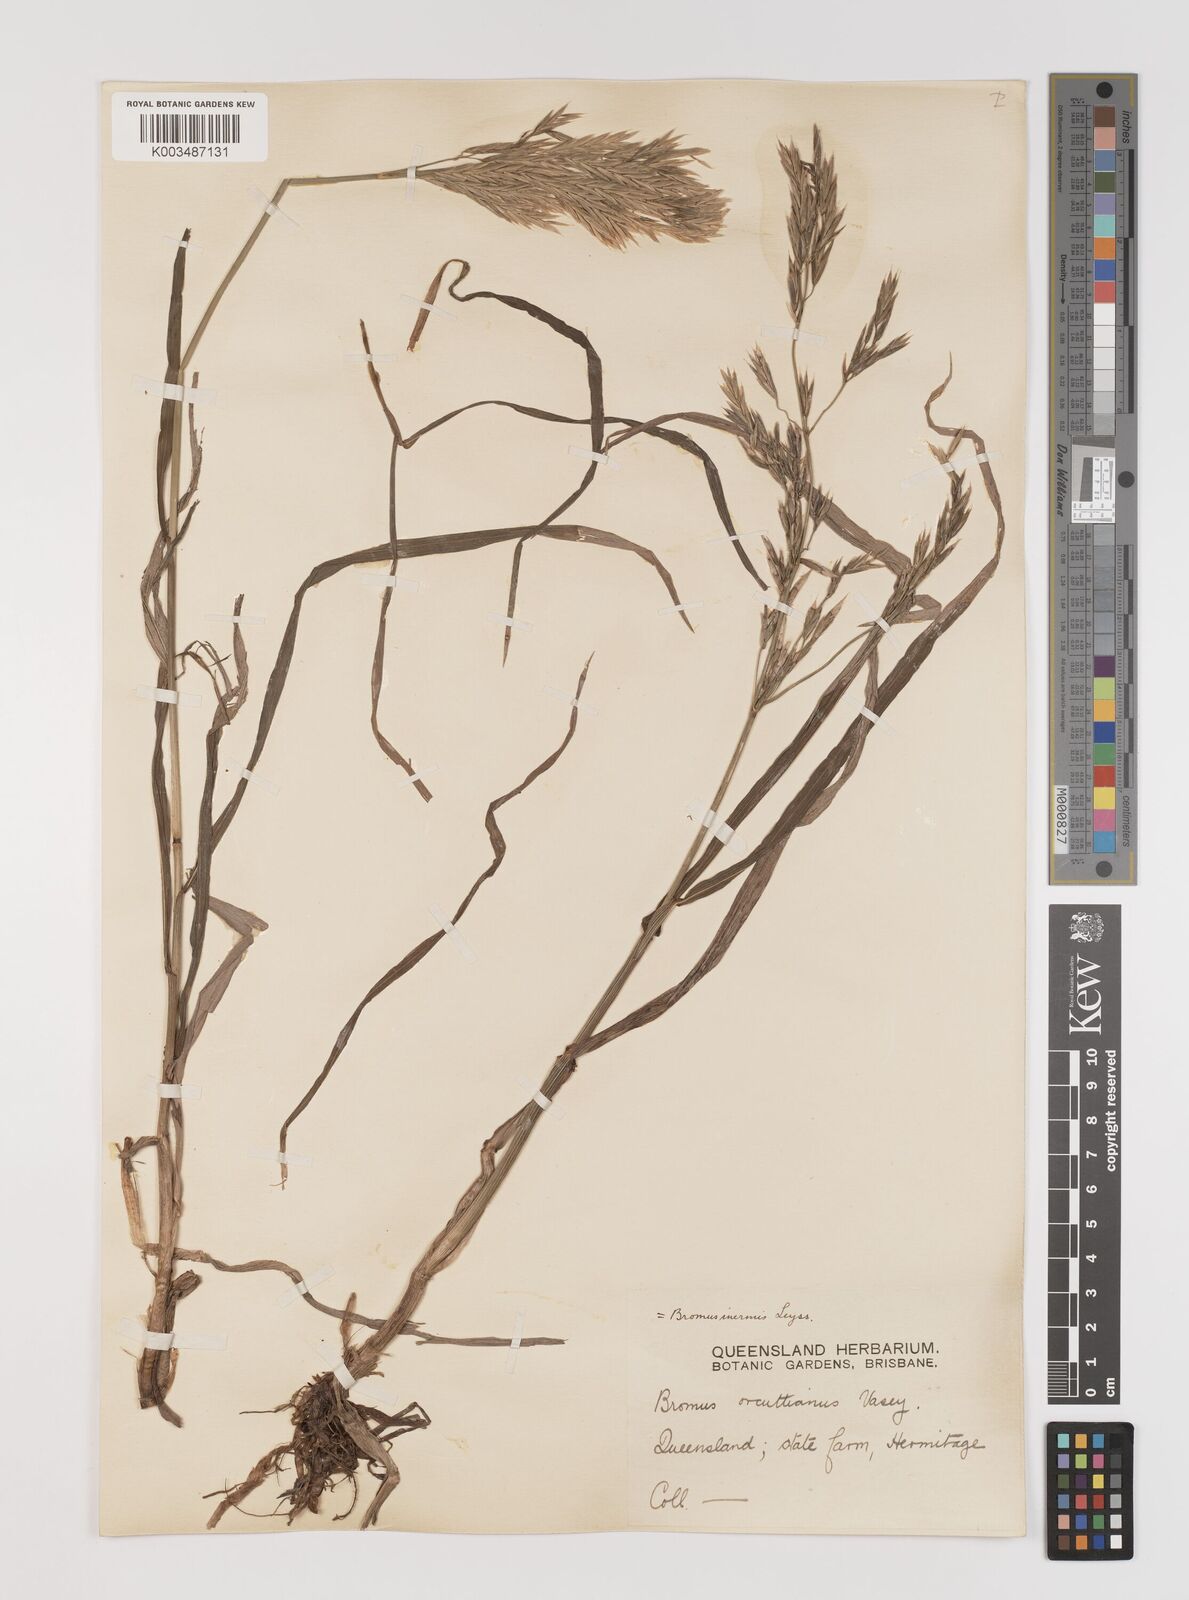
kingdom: Plantae
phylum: Tracheophyta
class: Liliopsida
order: Poales
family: Poaceae
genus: Bromus
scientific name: Bromus
